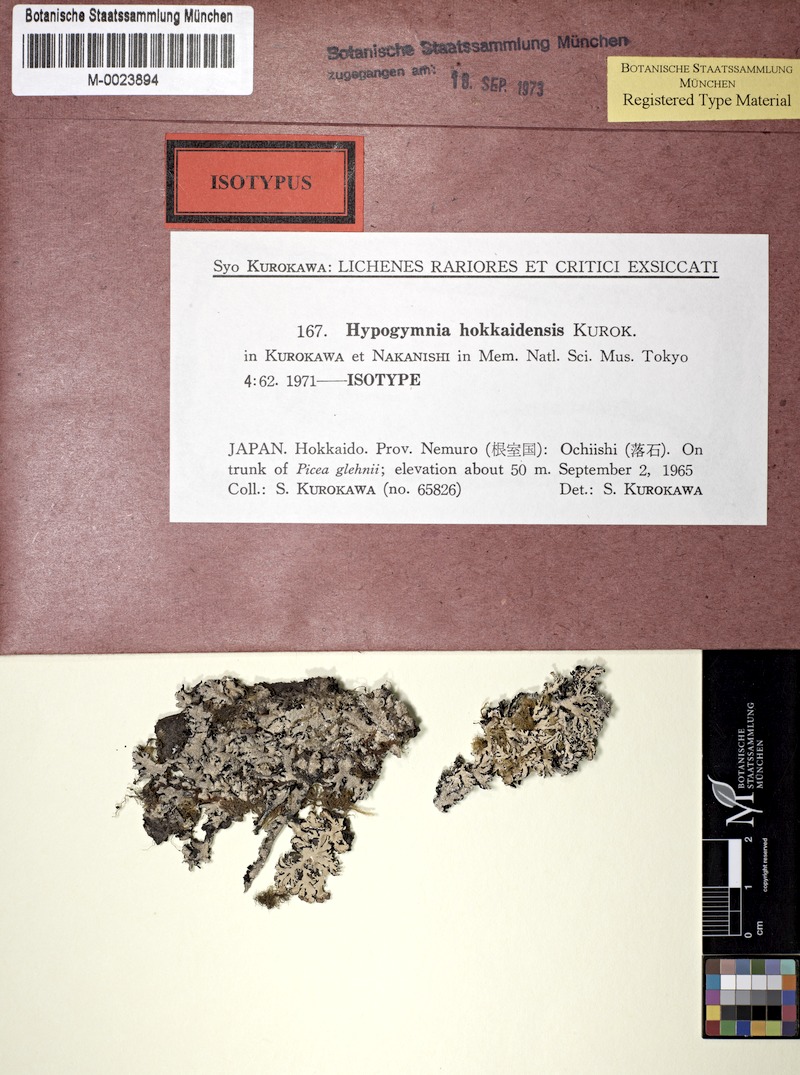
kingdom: Fungi
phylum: Ascomycota
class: Lecanoromycetes
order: Lecanorales
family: Parmeliaceae
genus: Hypogymnia
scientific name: Hypogymnia hokkaidensis
